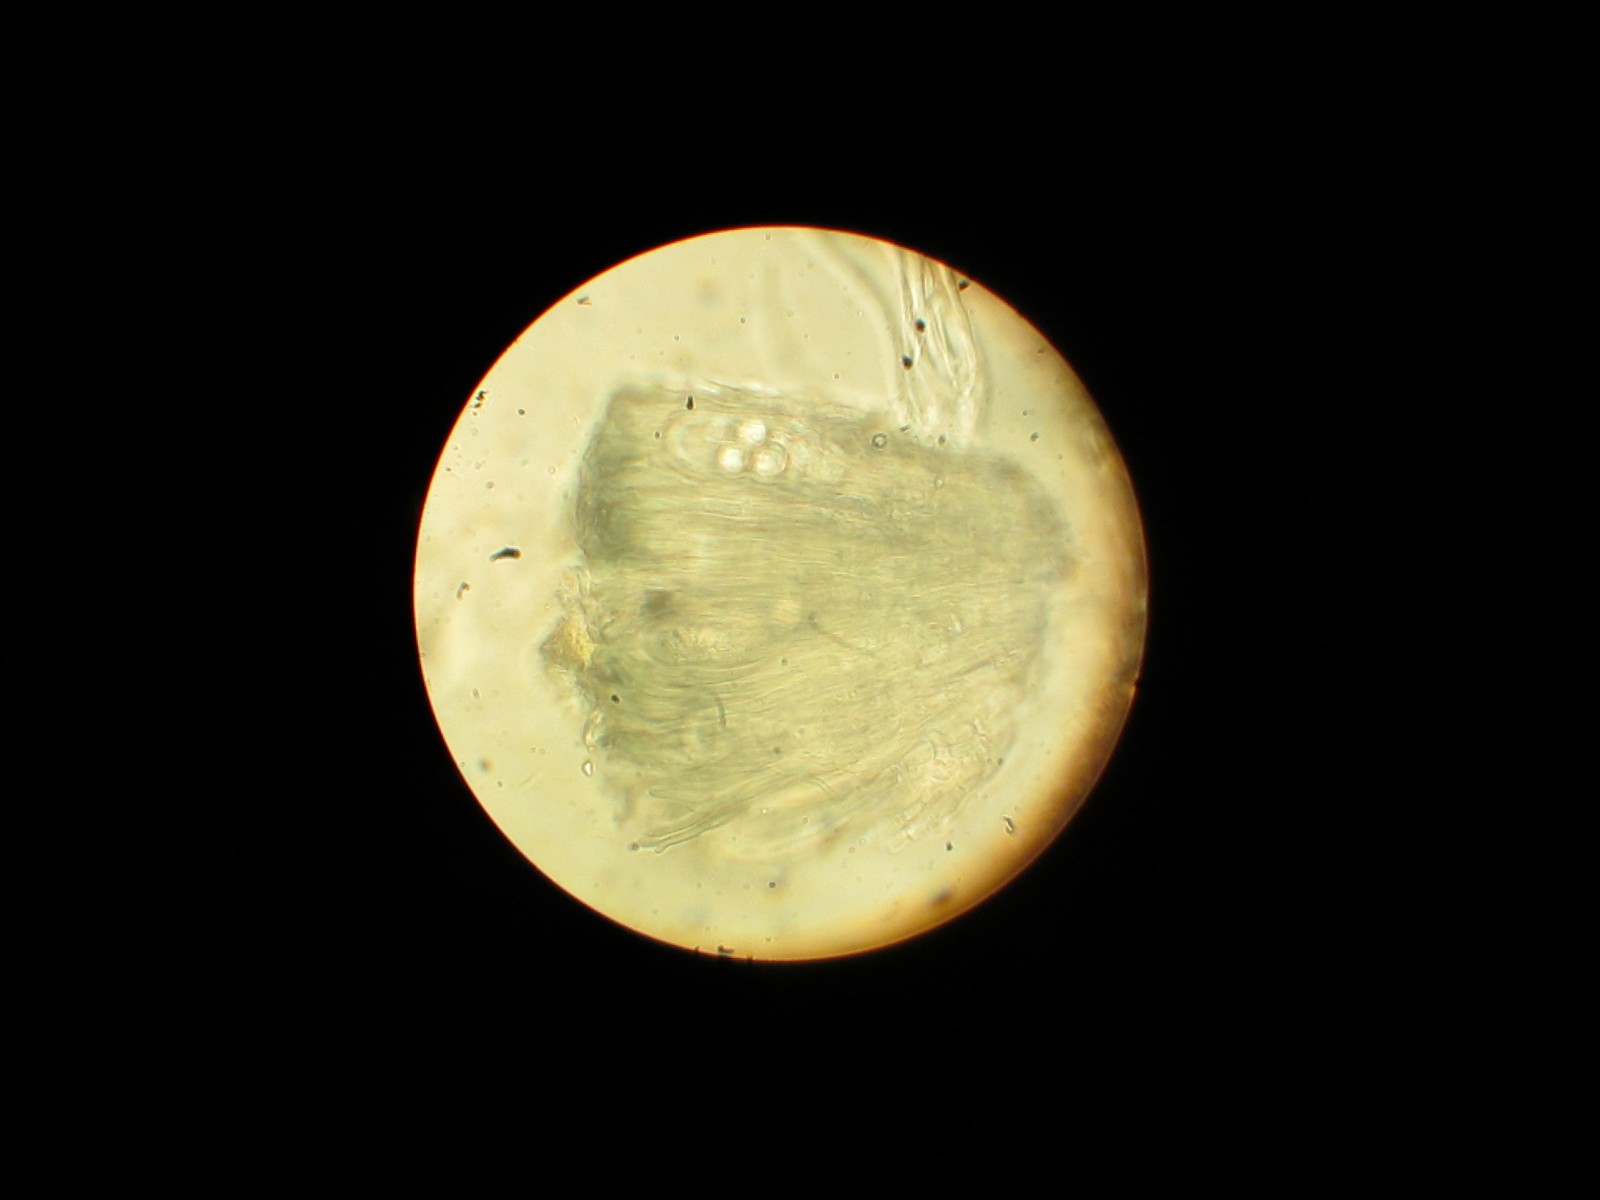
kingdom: Fungi
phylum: Ascomycota
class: Lecanoromycetes
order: Lecanorales
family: Lecanoraceae
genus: Lecidella
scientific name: Lecidella elaeochroma
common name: grågrøn skivelav
